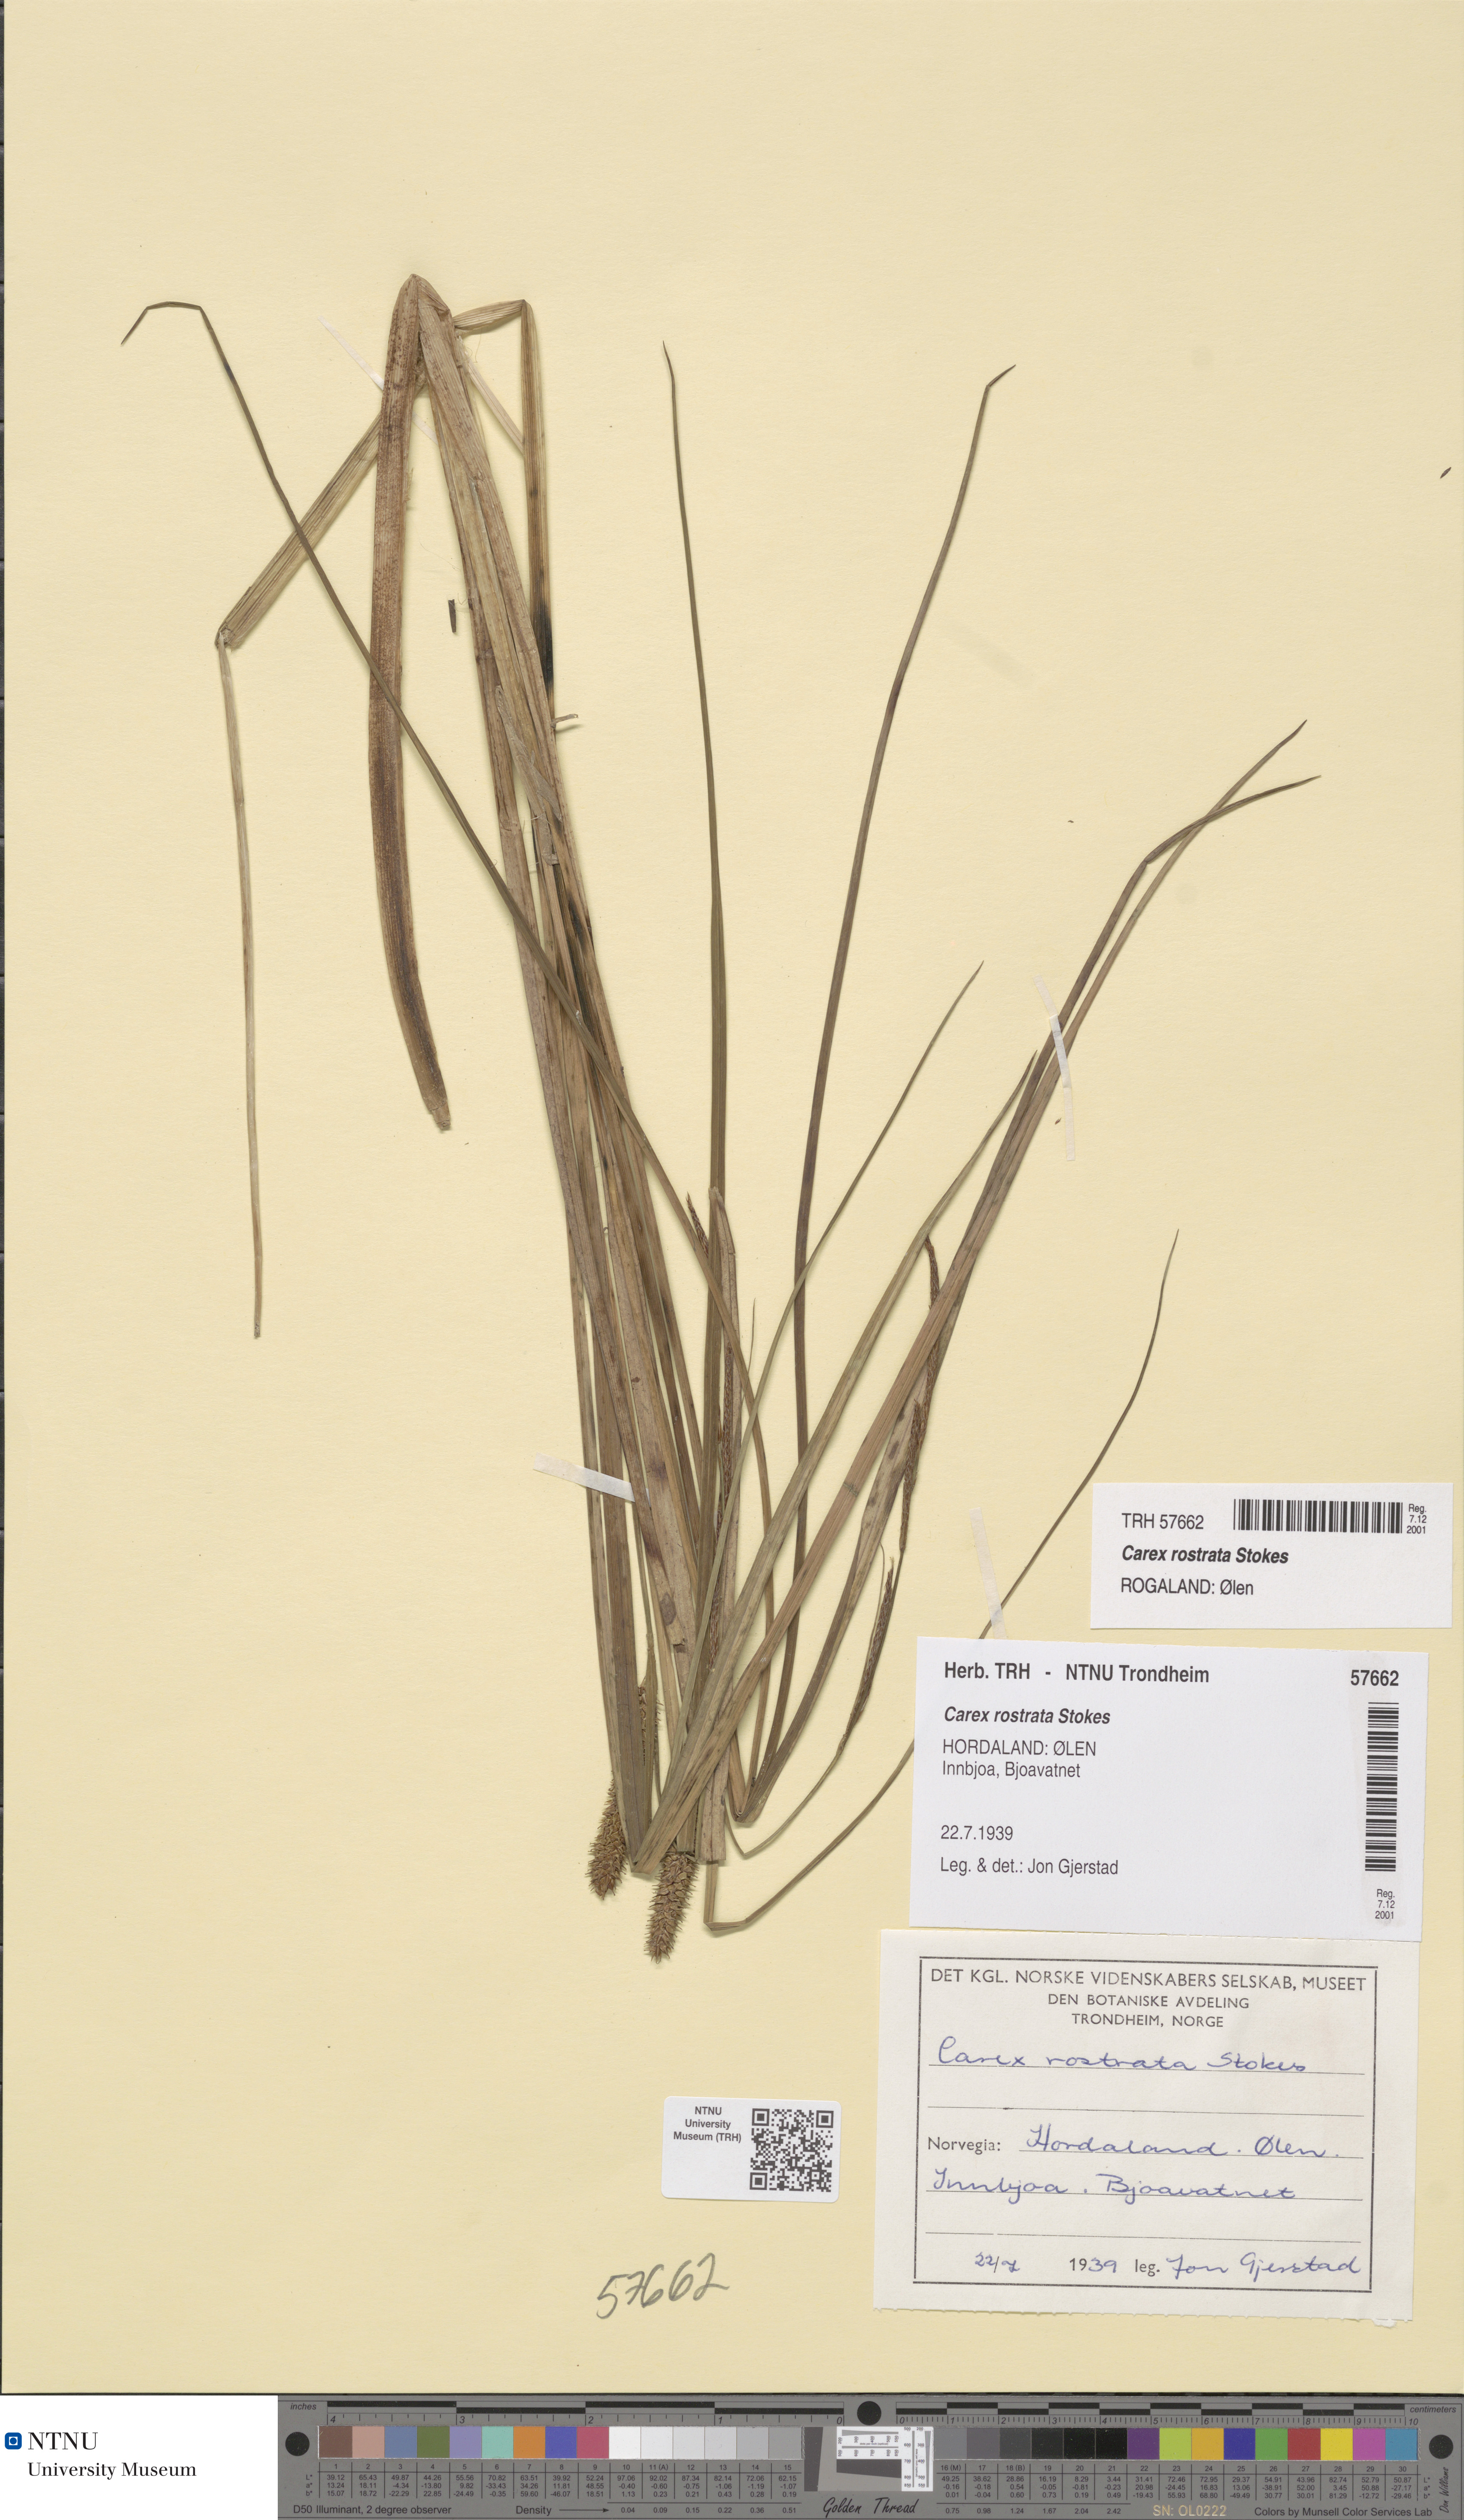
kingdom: Plantae
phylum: Tracheophyta
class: Liliopsida
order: Poales
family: Cyperaceae
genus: Carex
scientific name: Carex rostrata
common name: Bottle sedge
